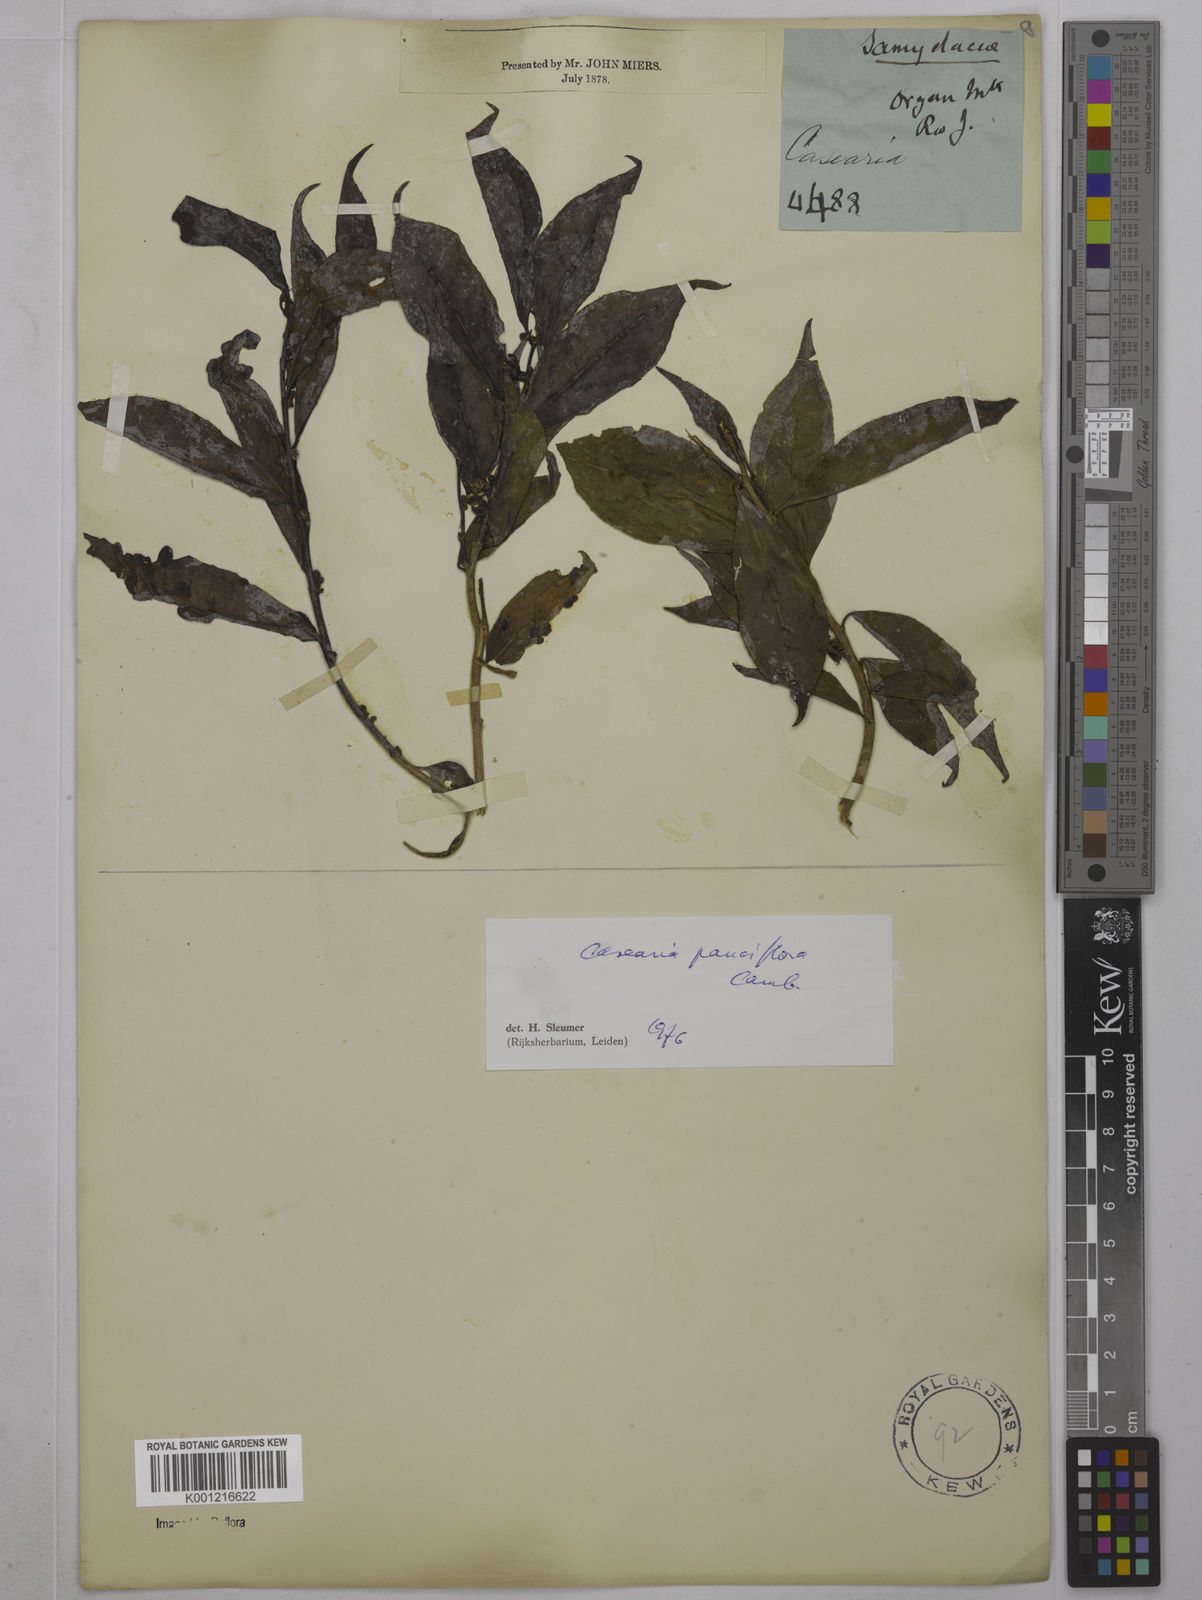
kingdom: Plantae
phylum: Tracheophyta
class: Magnoliopsida
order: Malpighiales
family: Salicaceae
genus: Casearia
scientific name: Casearia pauciflora
